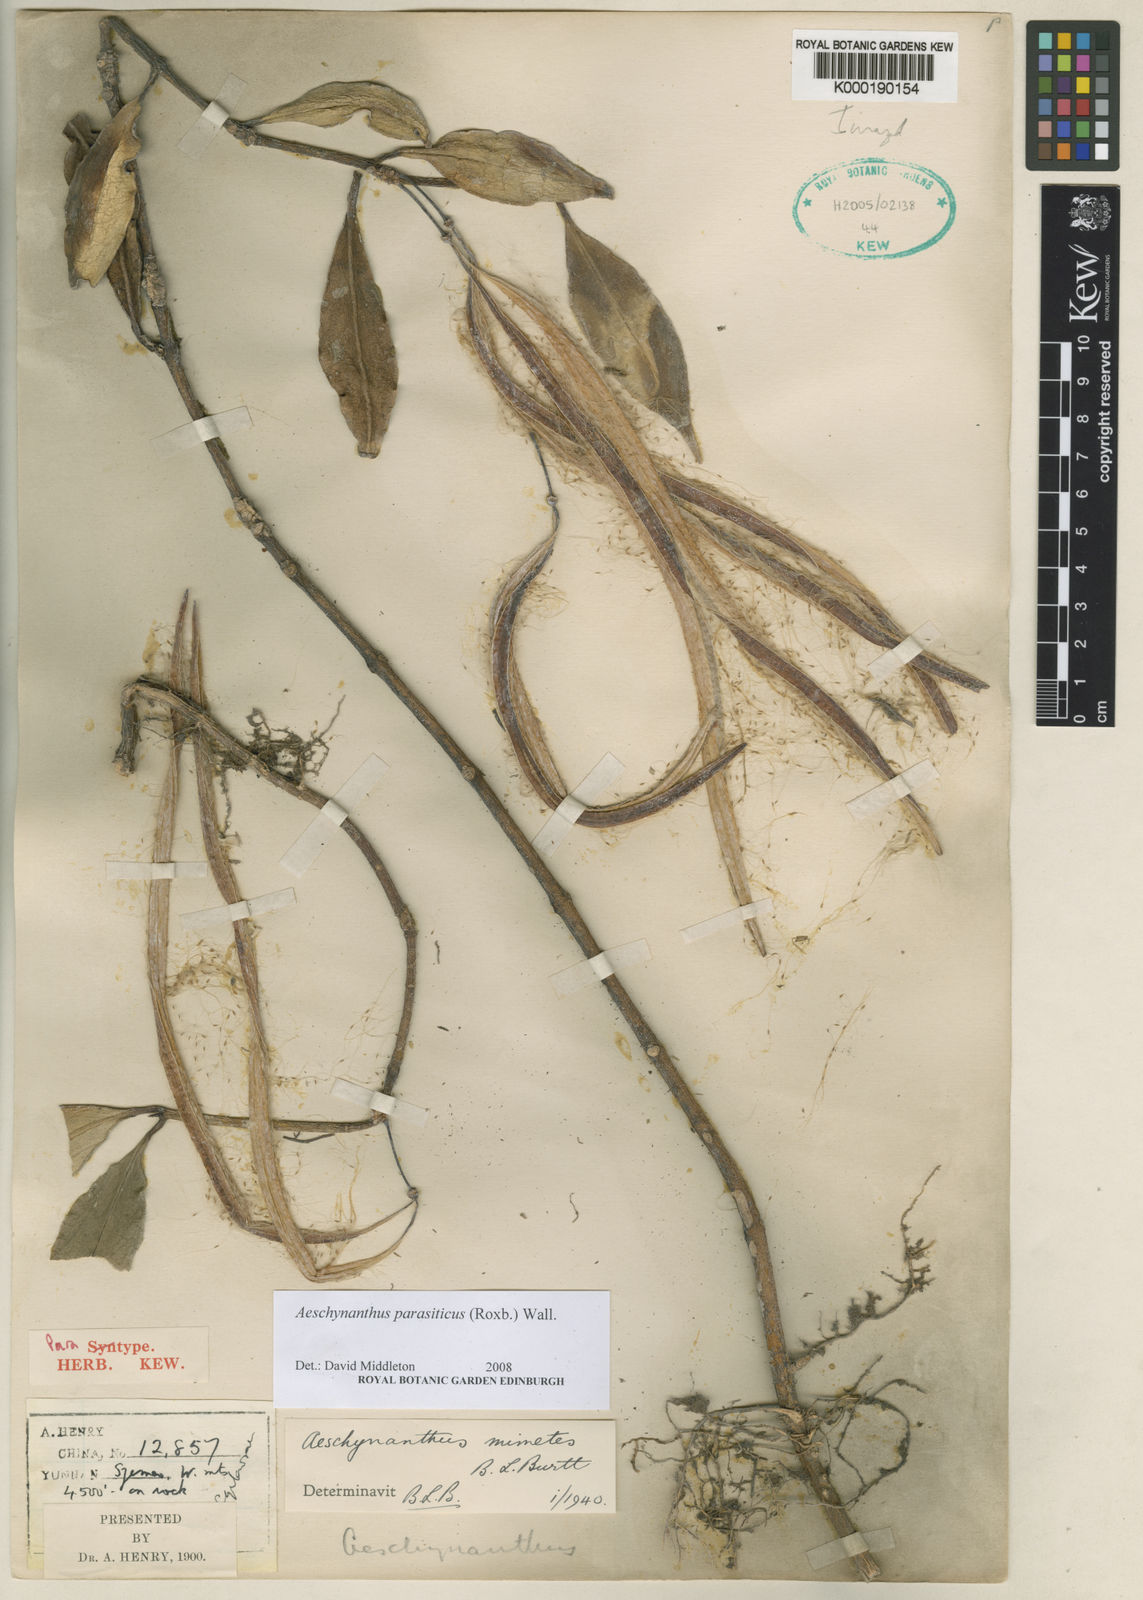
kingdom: Plantae
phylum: Tracheophyta
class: Magnoliopsida
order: Lamiales
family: Gesneriaceae
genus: Aeschynanthus
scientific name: Aeschynanthus parasiticus
